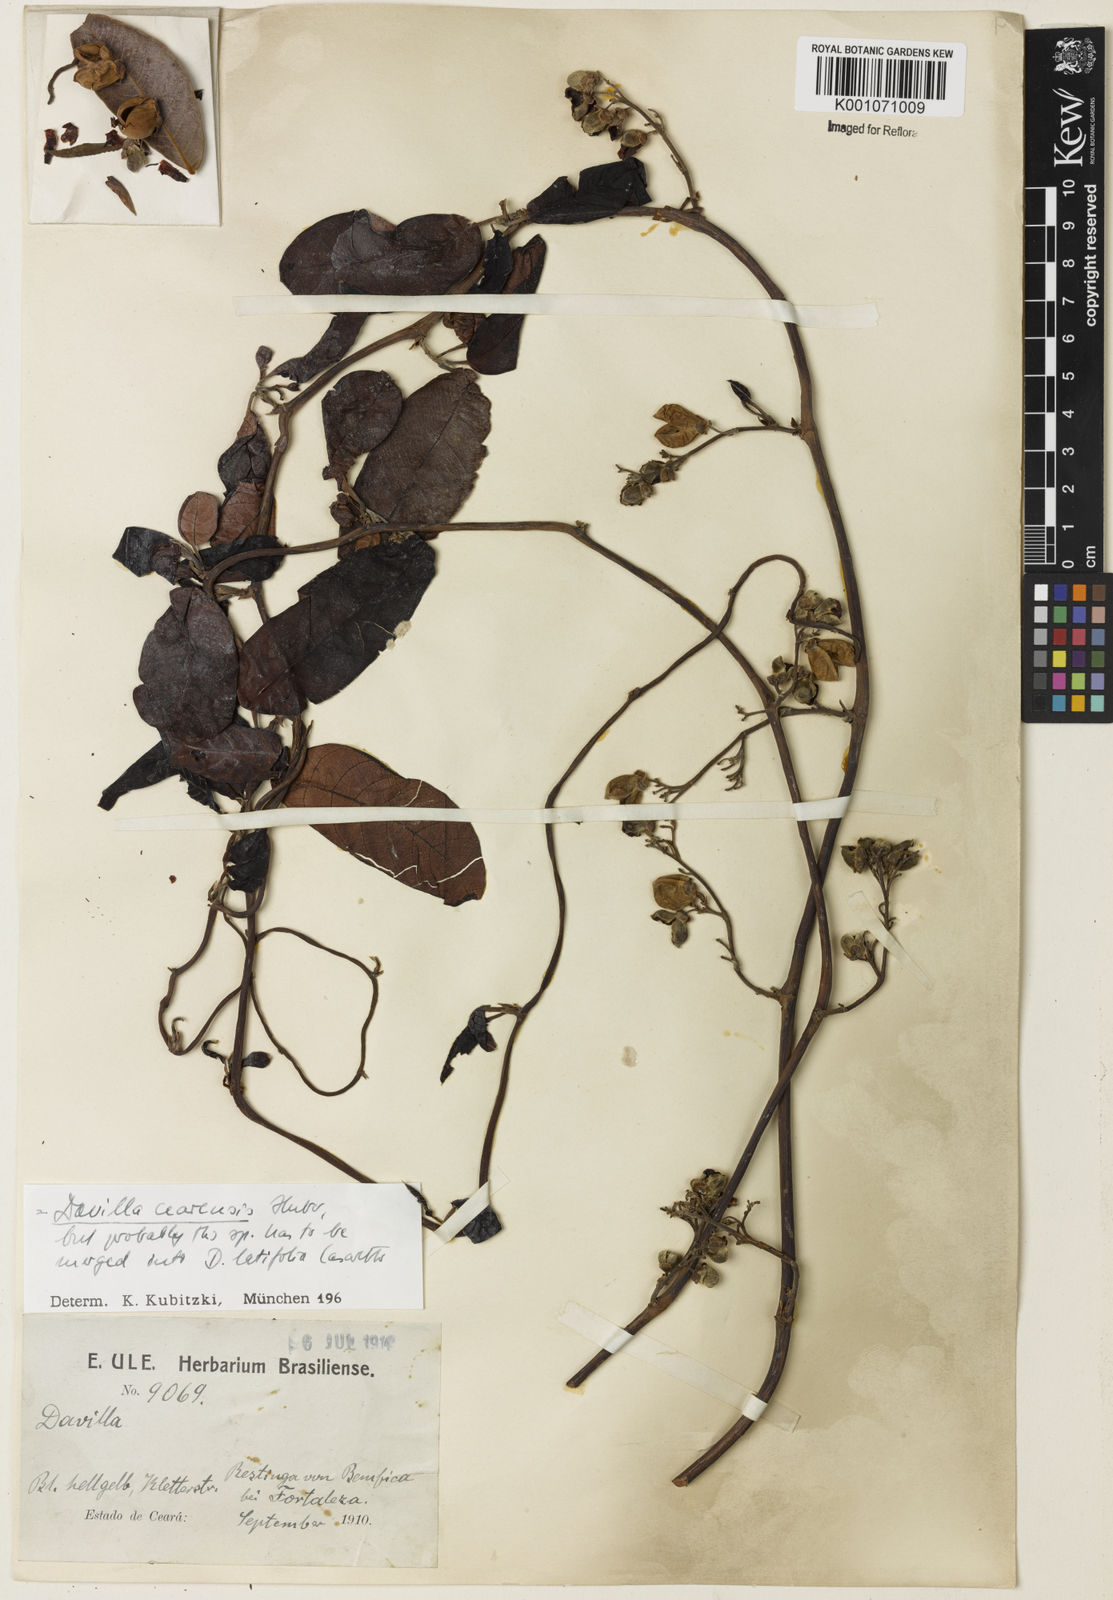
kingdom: Plantae
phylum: Tracheophyta
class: Magnoliopsida
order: Dilleniales
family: Dilleniaceae
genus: Davilla
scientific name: Davilla cearensis
